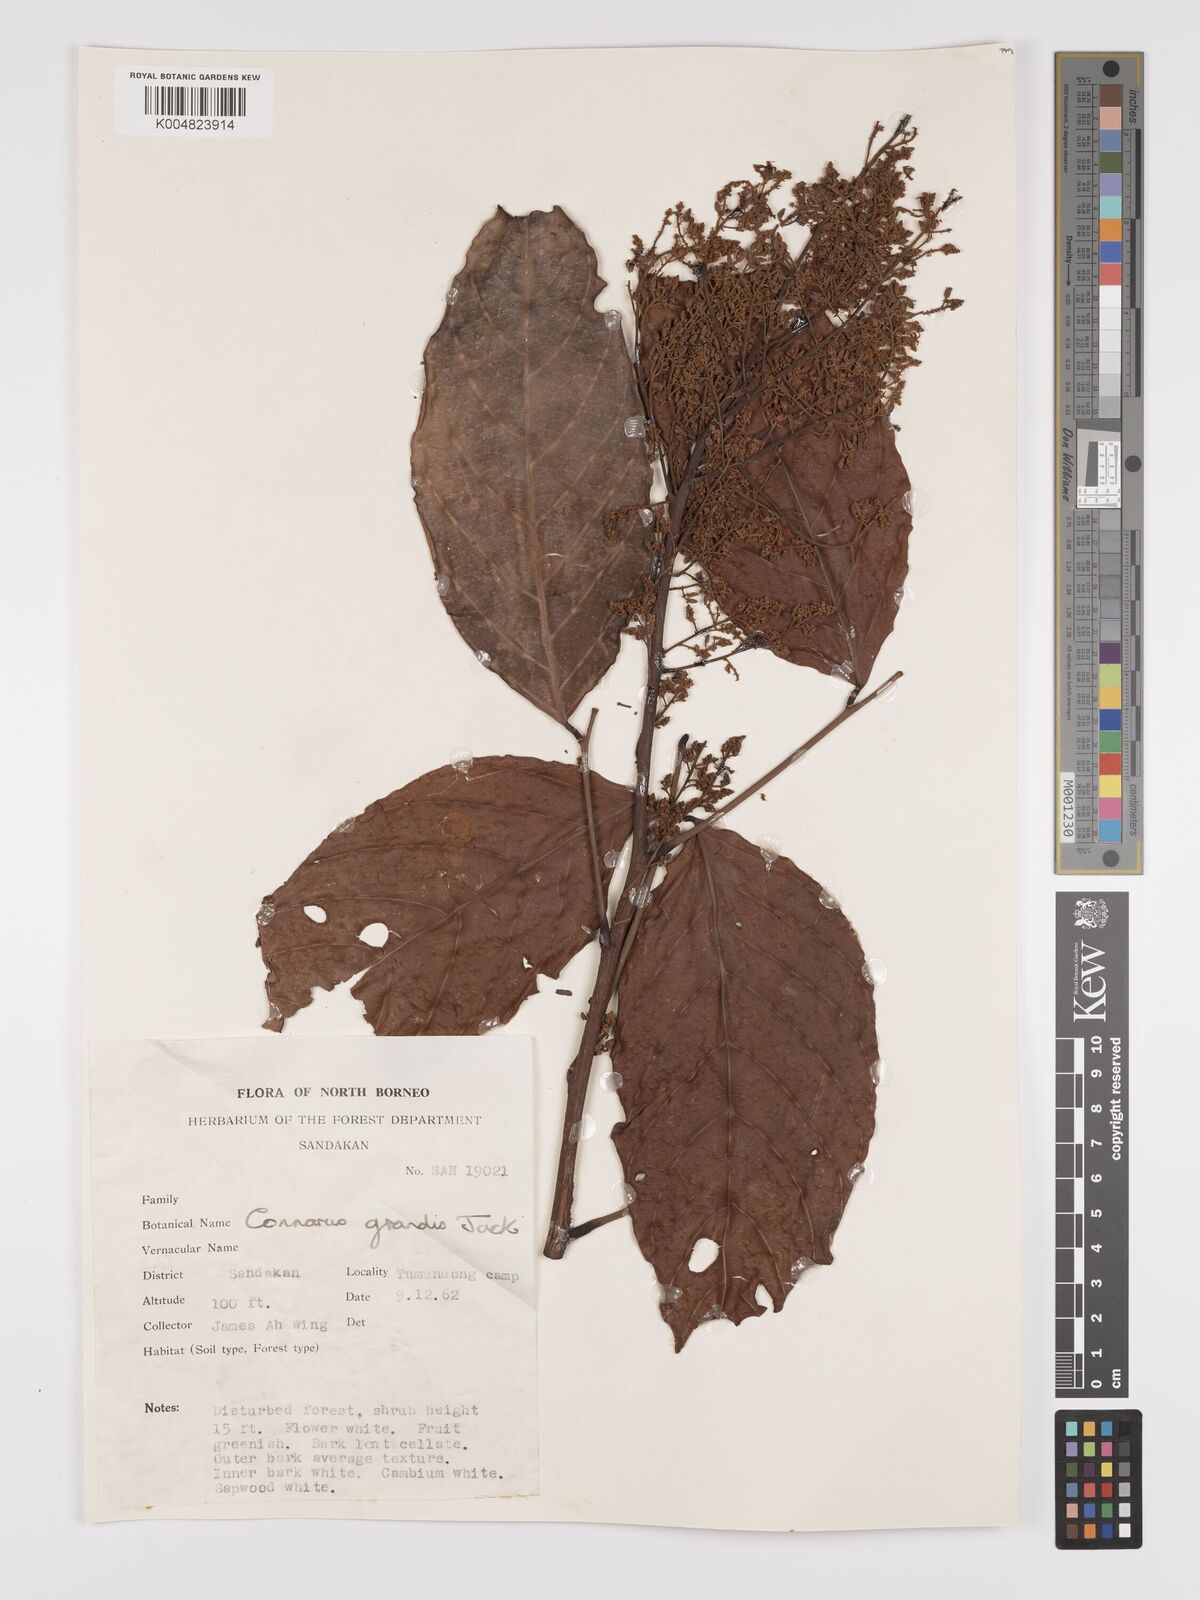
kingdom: Plantae
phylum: Tracheophyta
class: Magnoliopsida
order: Oxalidales
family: Connaraceae
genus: Connarus
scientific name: Connarus grandis
